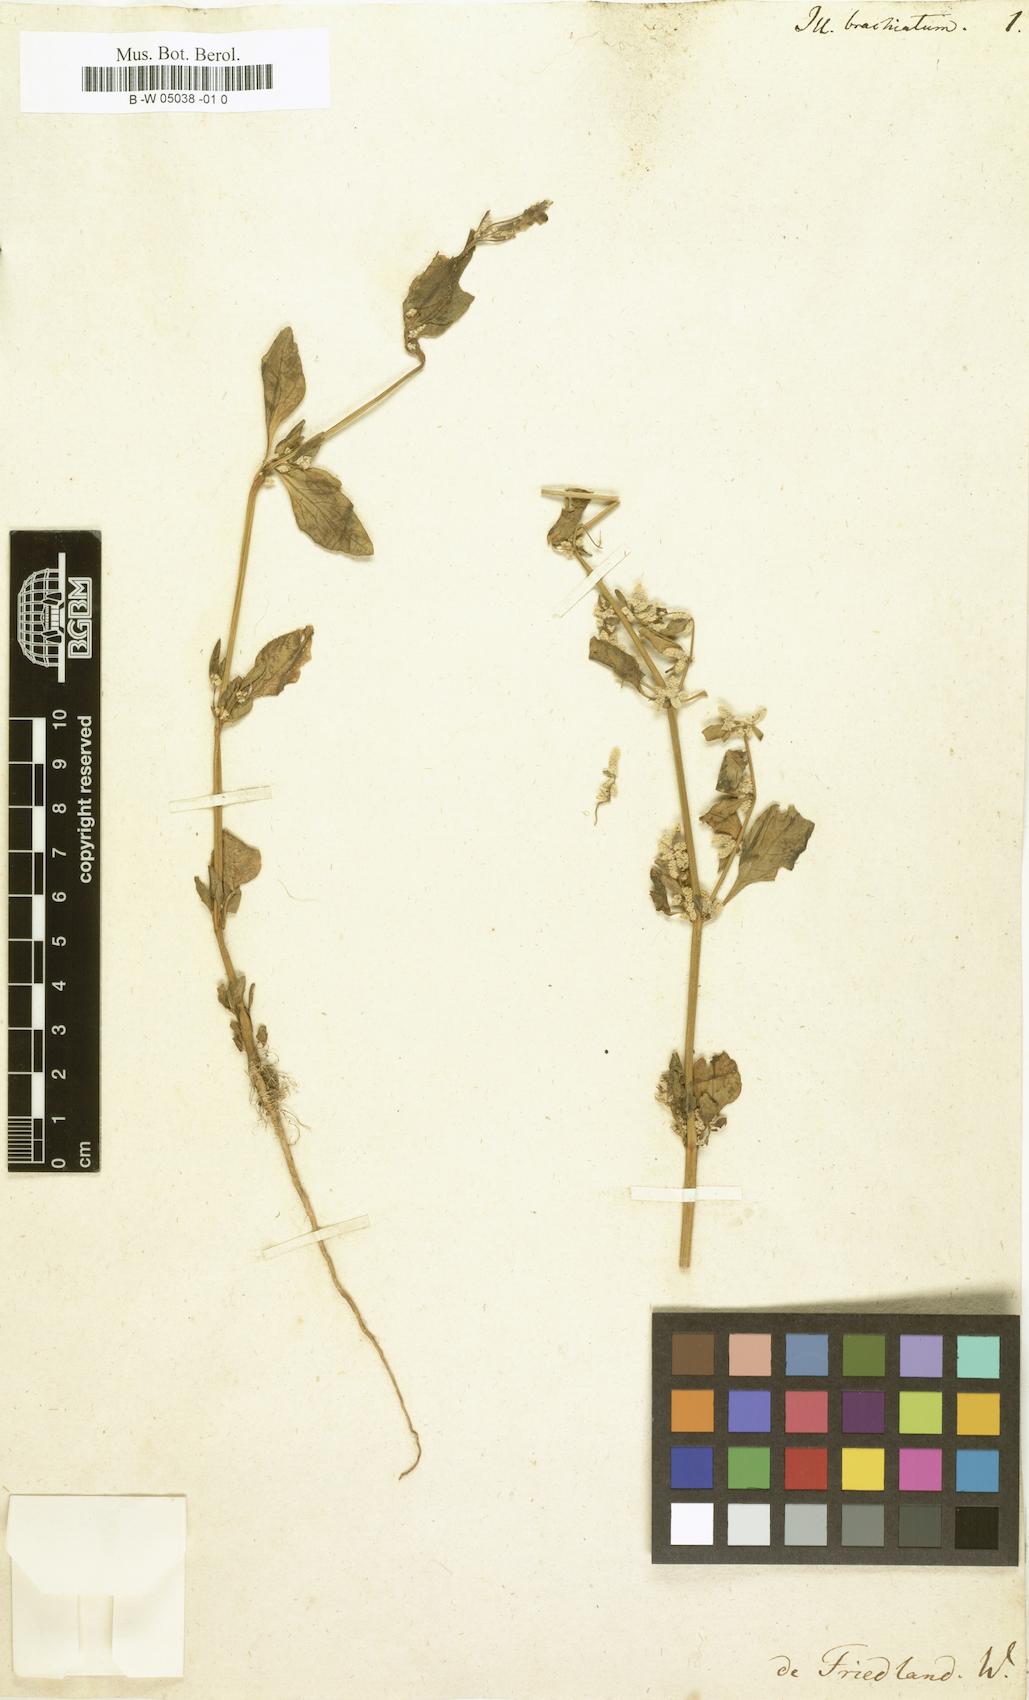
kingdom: Plantae
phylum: Tracheophyta
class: Magnoliopsida
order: Caryophyllales
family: Amaranthaceae
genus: Nothosaerva
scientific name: Nothosaerva brachiata
